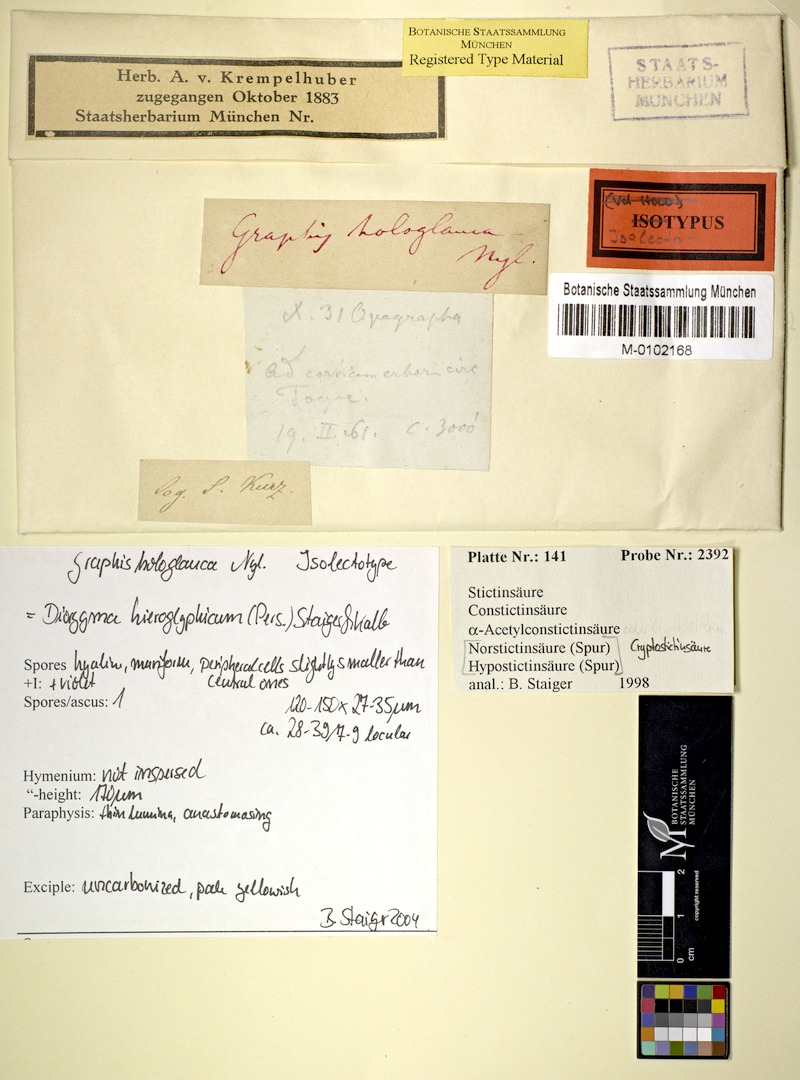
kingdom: Fungi
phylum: Ascomycota
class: Lecanoromycetes
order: Ostropales
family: Graphidaceae
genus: Diorygma
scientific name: Diorygma hieroglyphicum
